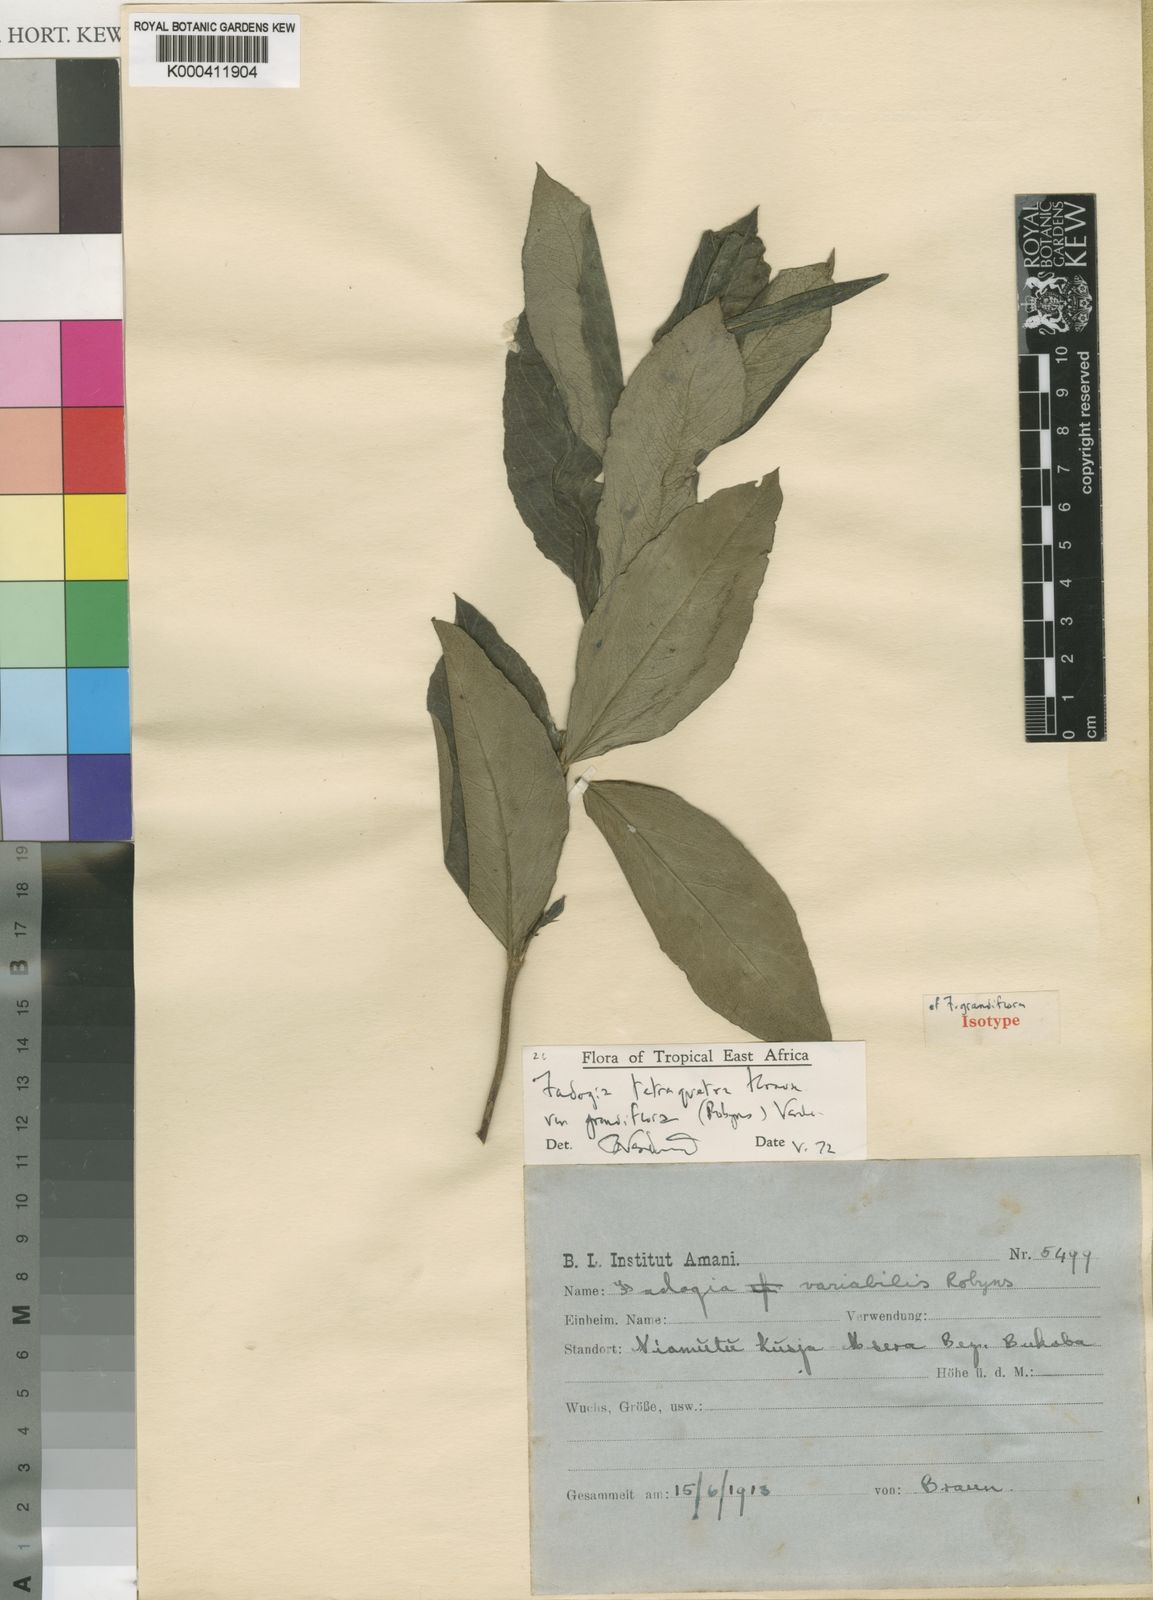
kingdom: Plantae
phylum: Tracheophyta
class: Magnoliopsida
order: Gentianales
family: Rubiaceae
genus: Fadogia
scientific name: Fadogia tetraquetra
